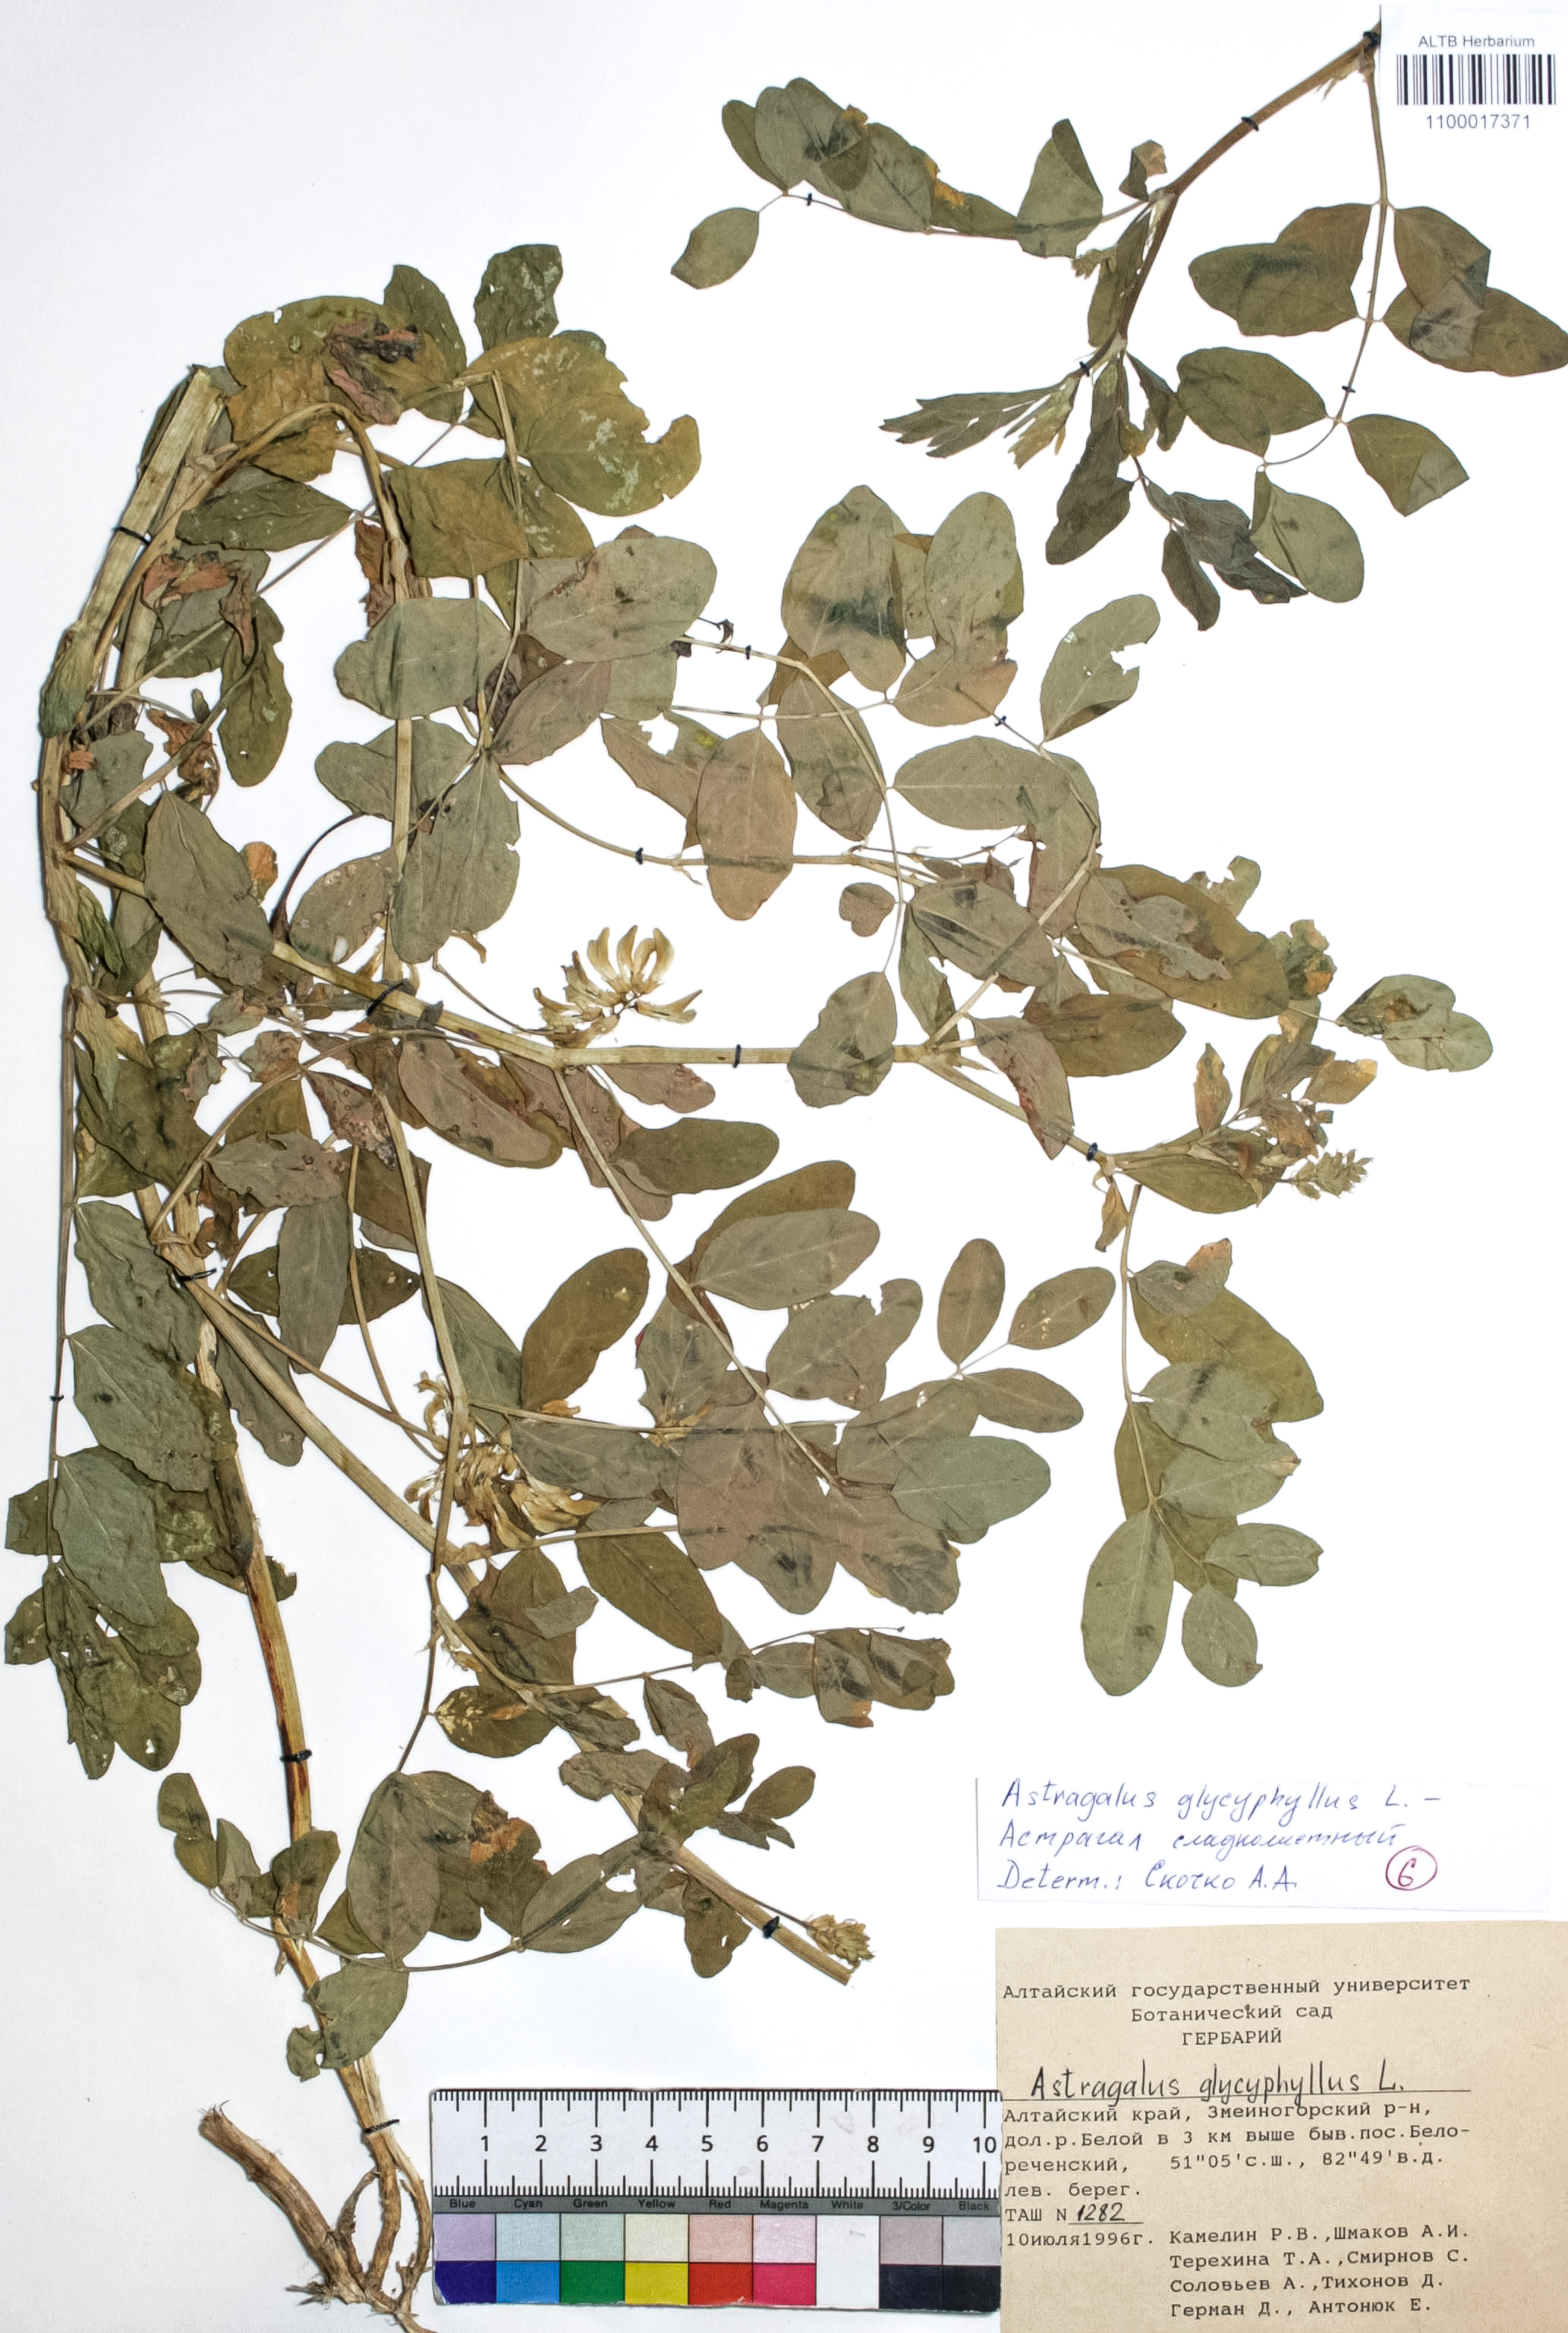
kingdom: Plantae
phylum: Tracheophyta
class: Magnoliopsida
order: Fabales
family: Fabaceae
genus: Astragalus
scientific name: Astragalus glycyphyllos
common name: Wild liquorice
